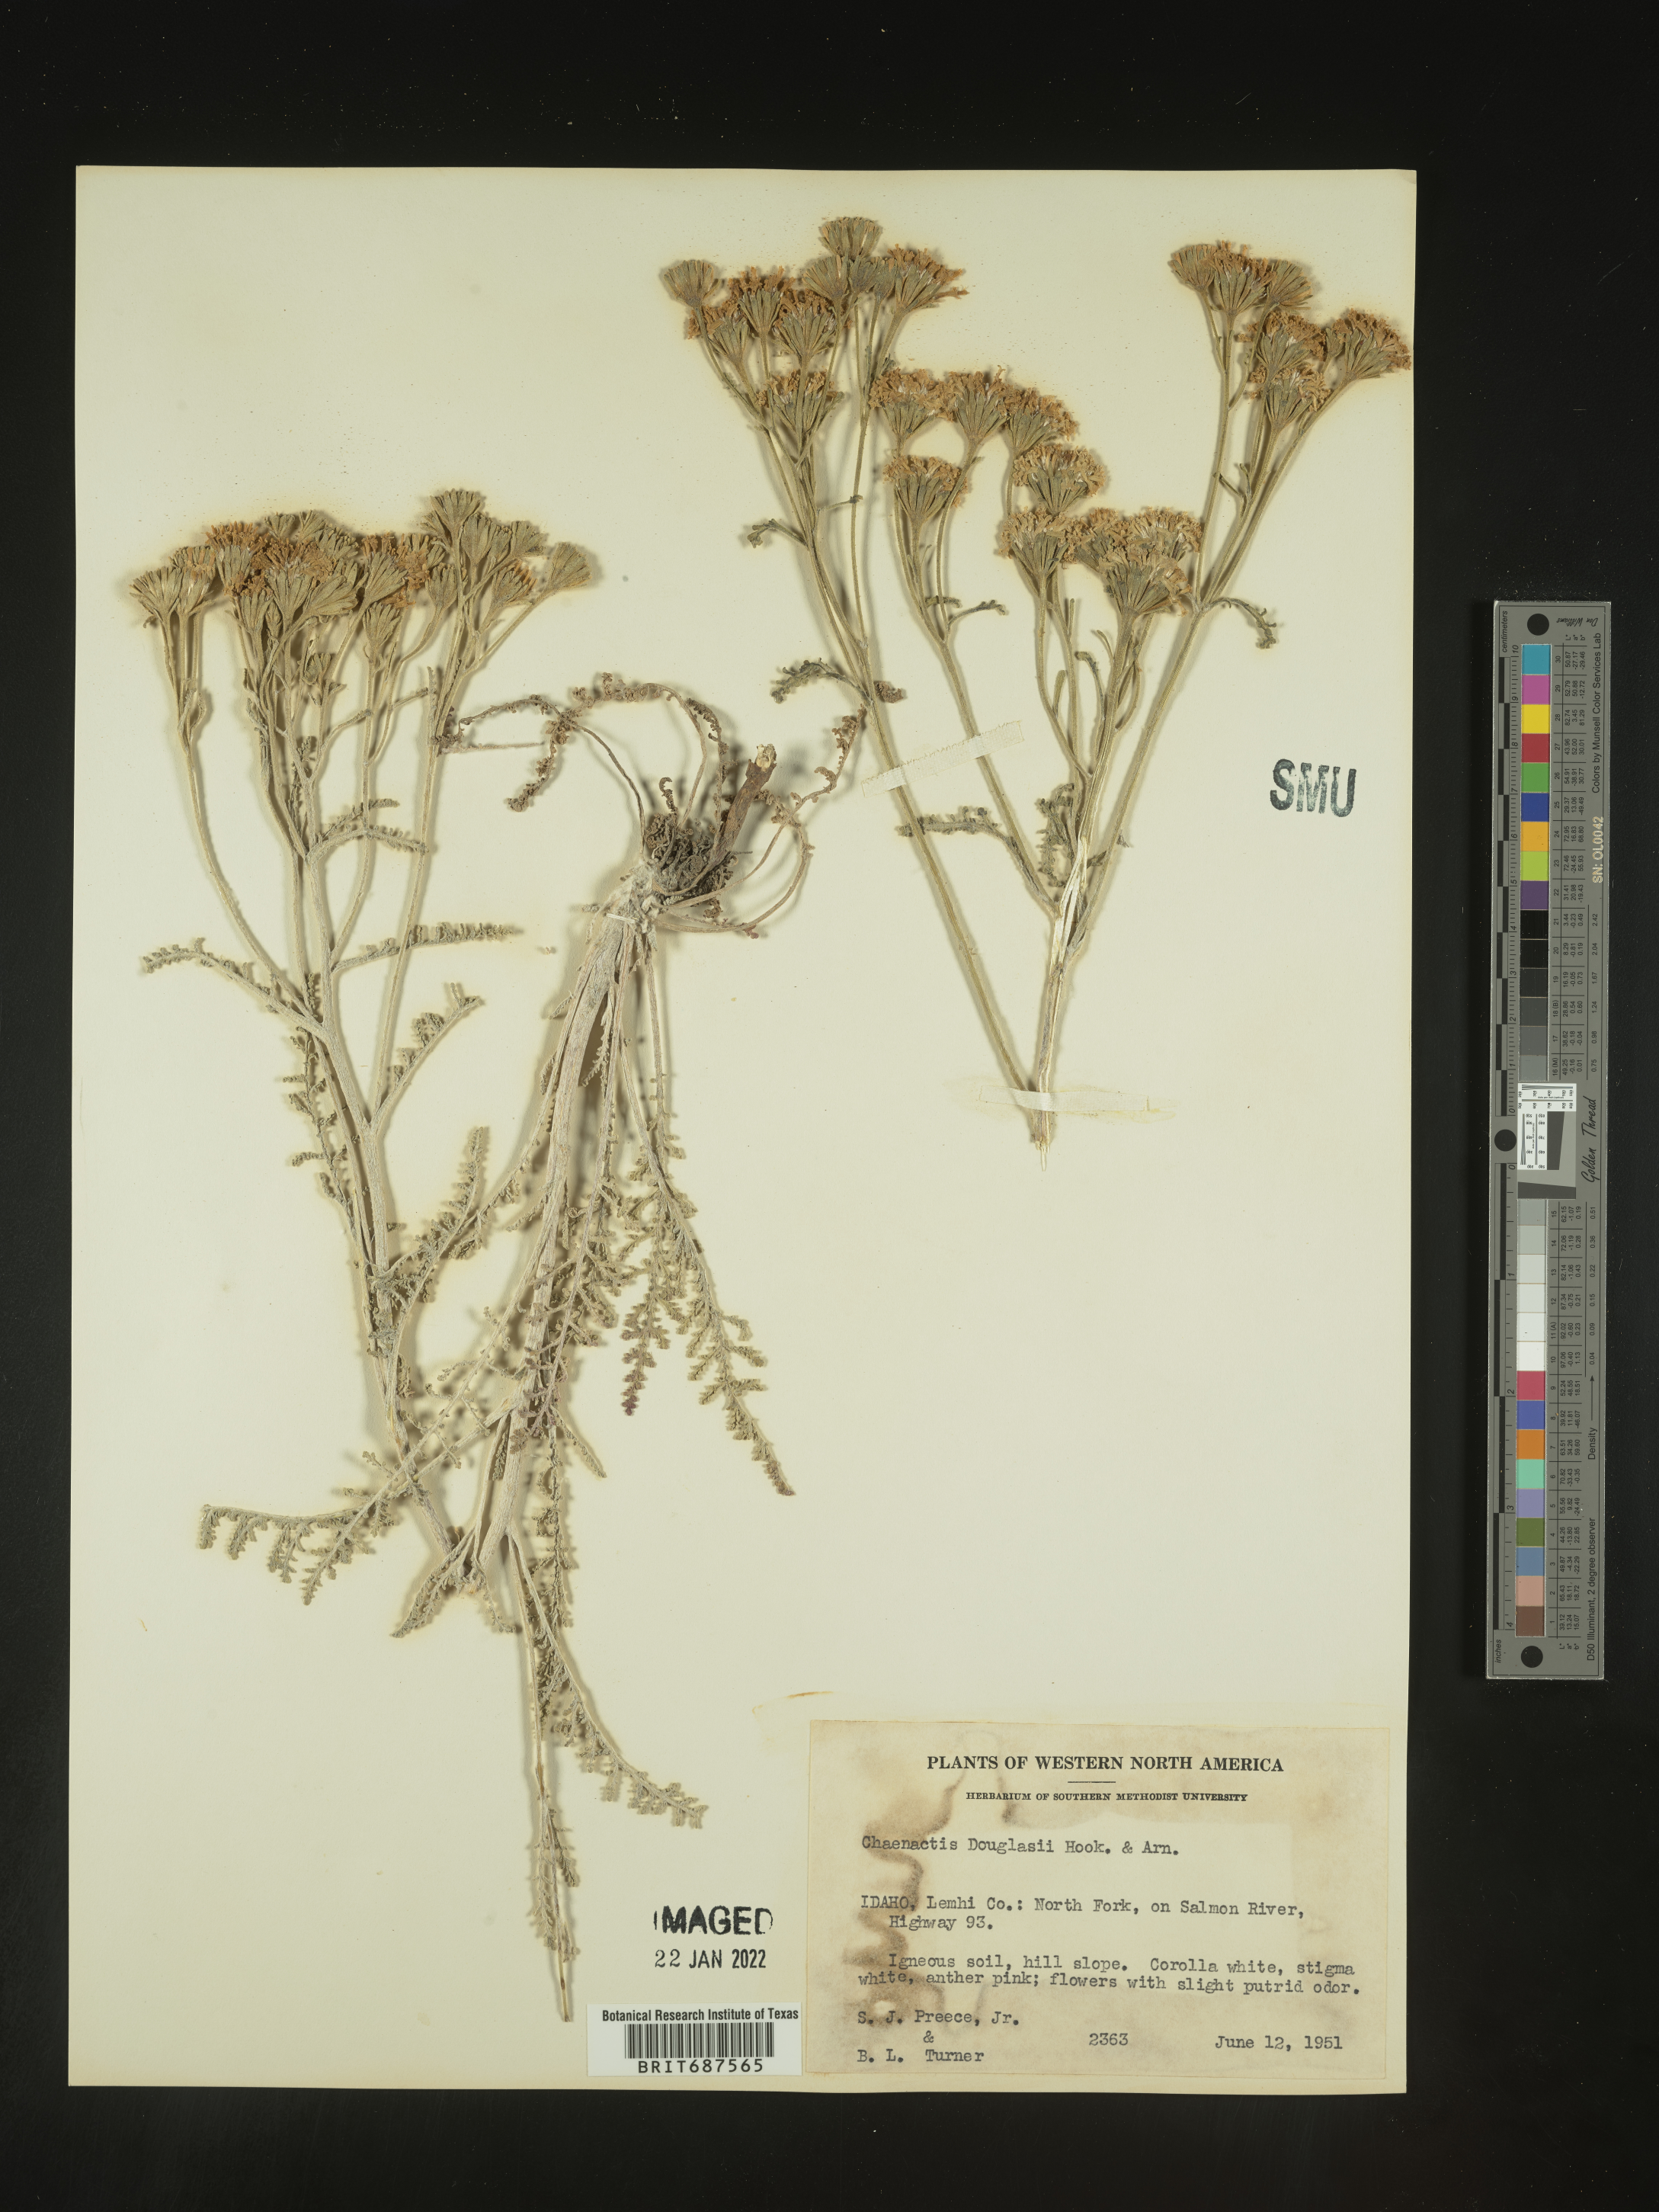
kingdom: Plantae
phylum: Tracheophyta
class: Magnoliopsida
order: Asterales
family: Asteraceae
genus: Chaenactis
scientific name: Chaenactis douglasii
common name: Hoary pincushion
